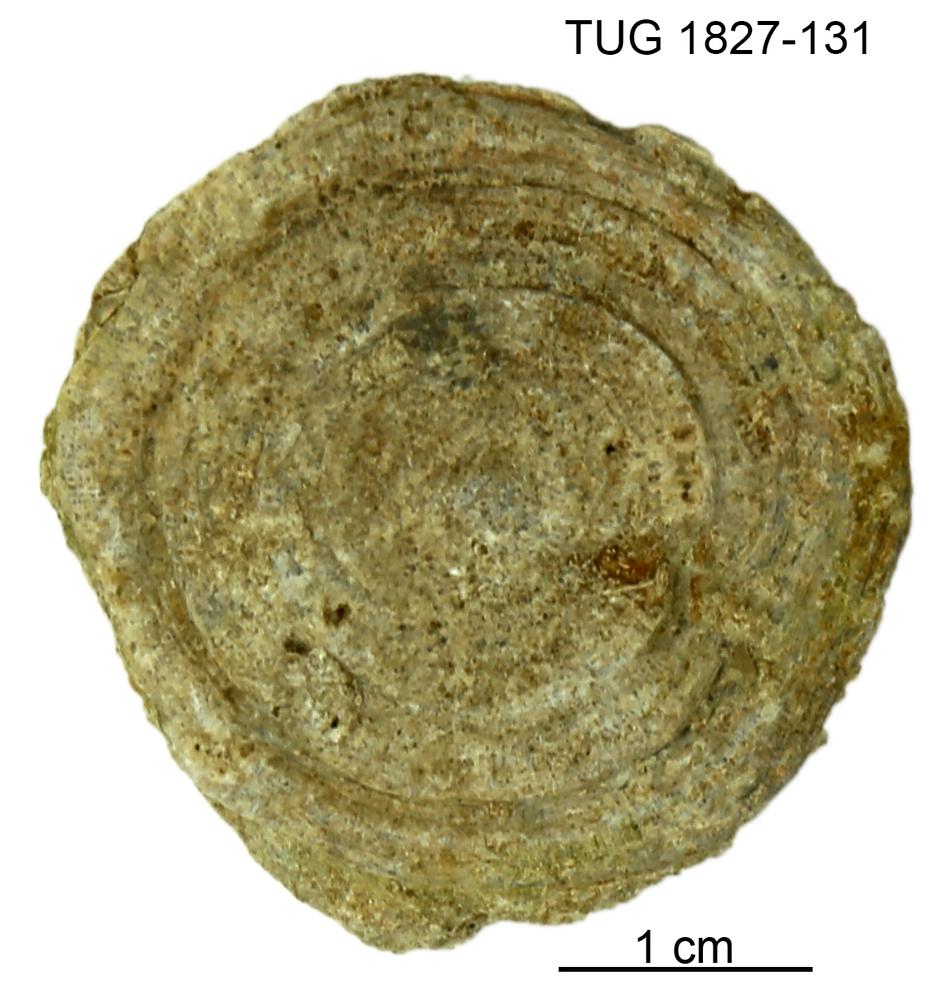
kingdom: Animalia
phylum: Bryozoa
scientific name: Bryozoa
